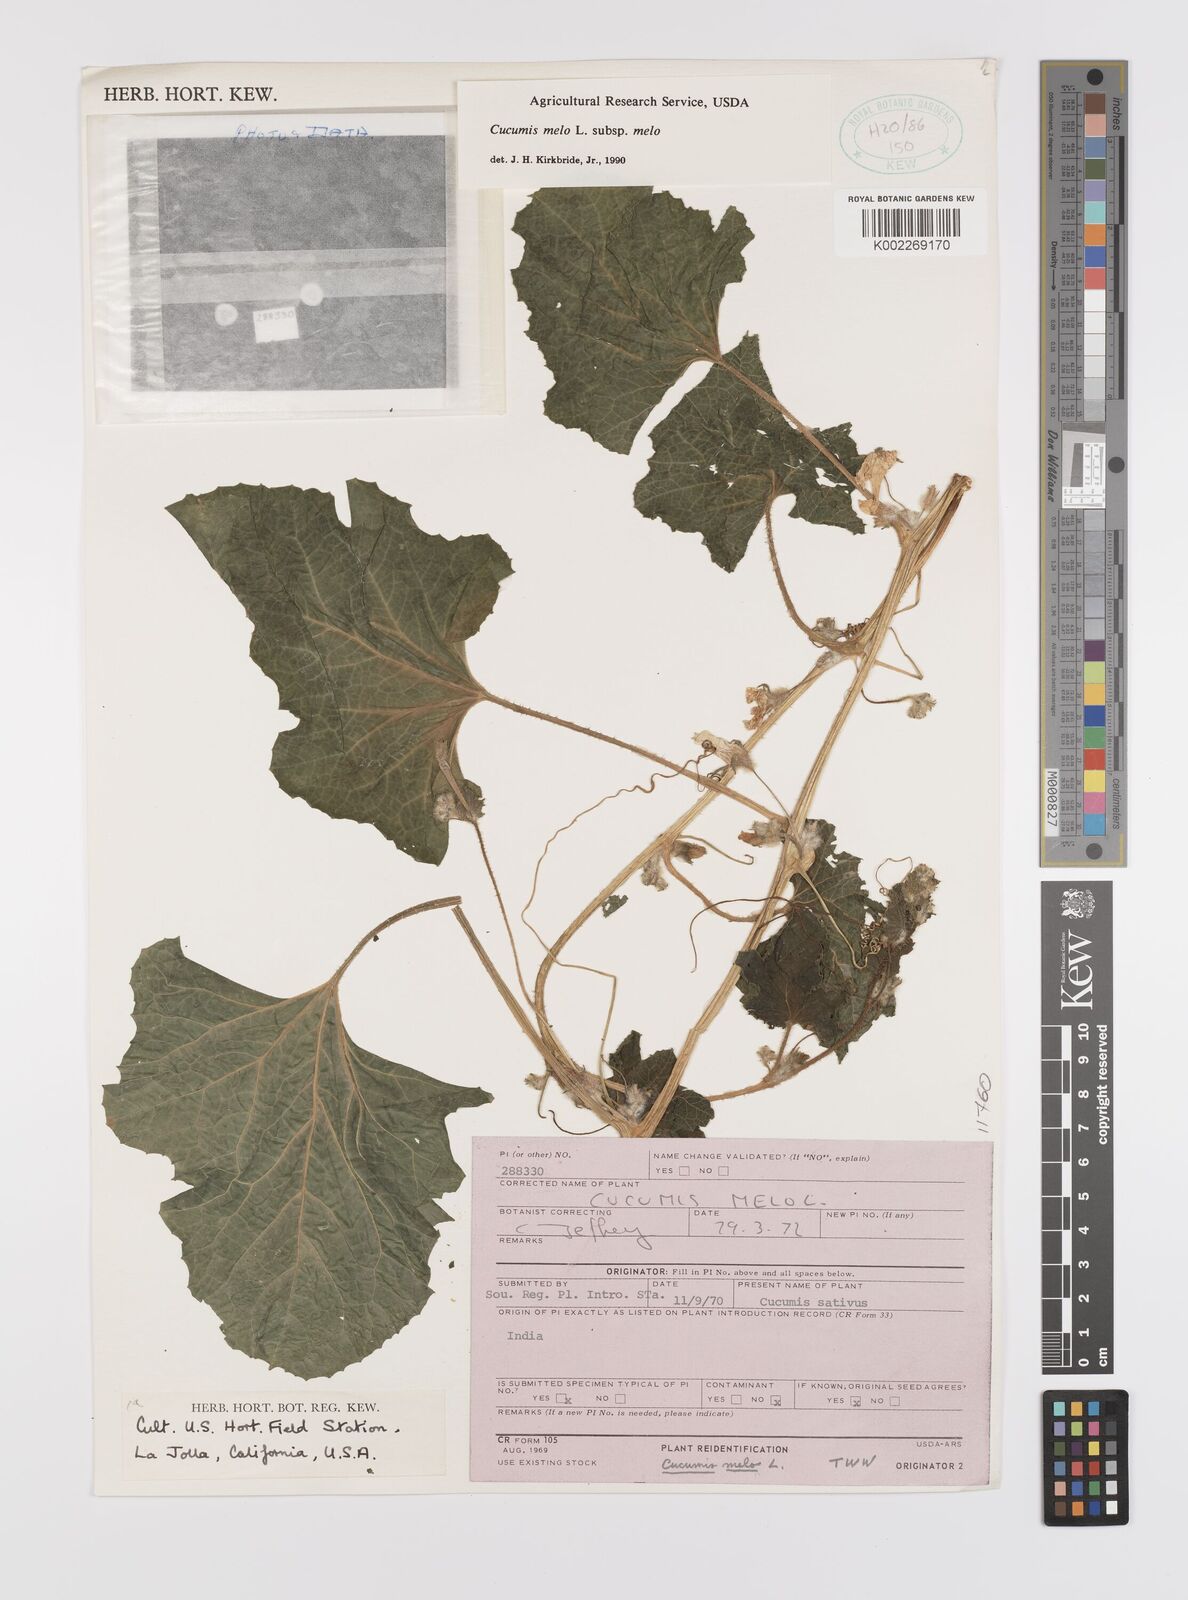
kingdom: Plantae
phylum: Tracheophyta
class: Magnoliopsida
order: Cucurbitales
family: Cucurbitaceae
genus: Cucumis
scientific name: Cucumis melo
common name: Melon
